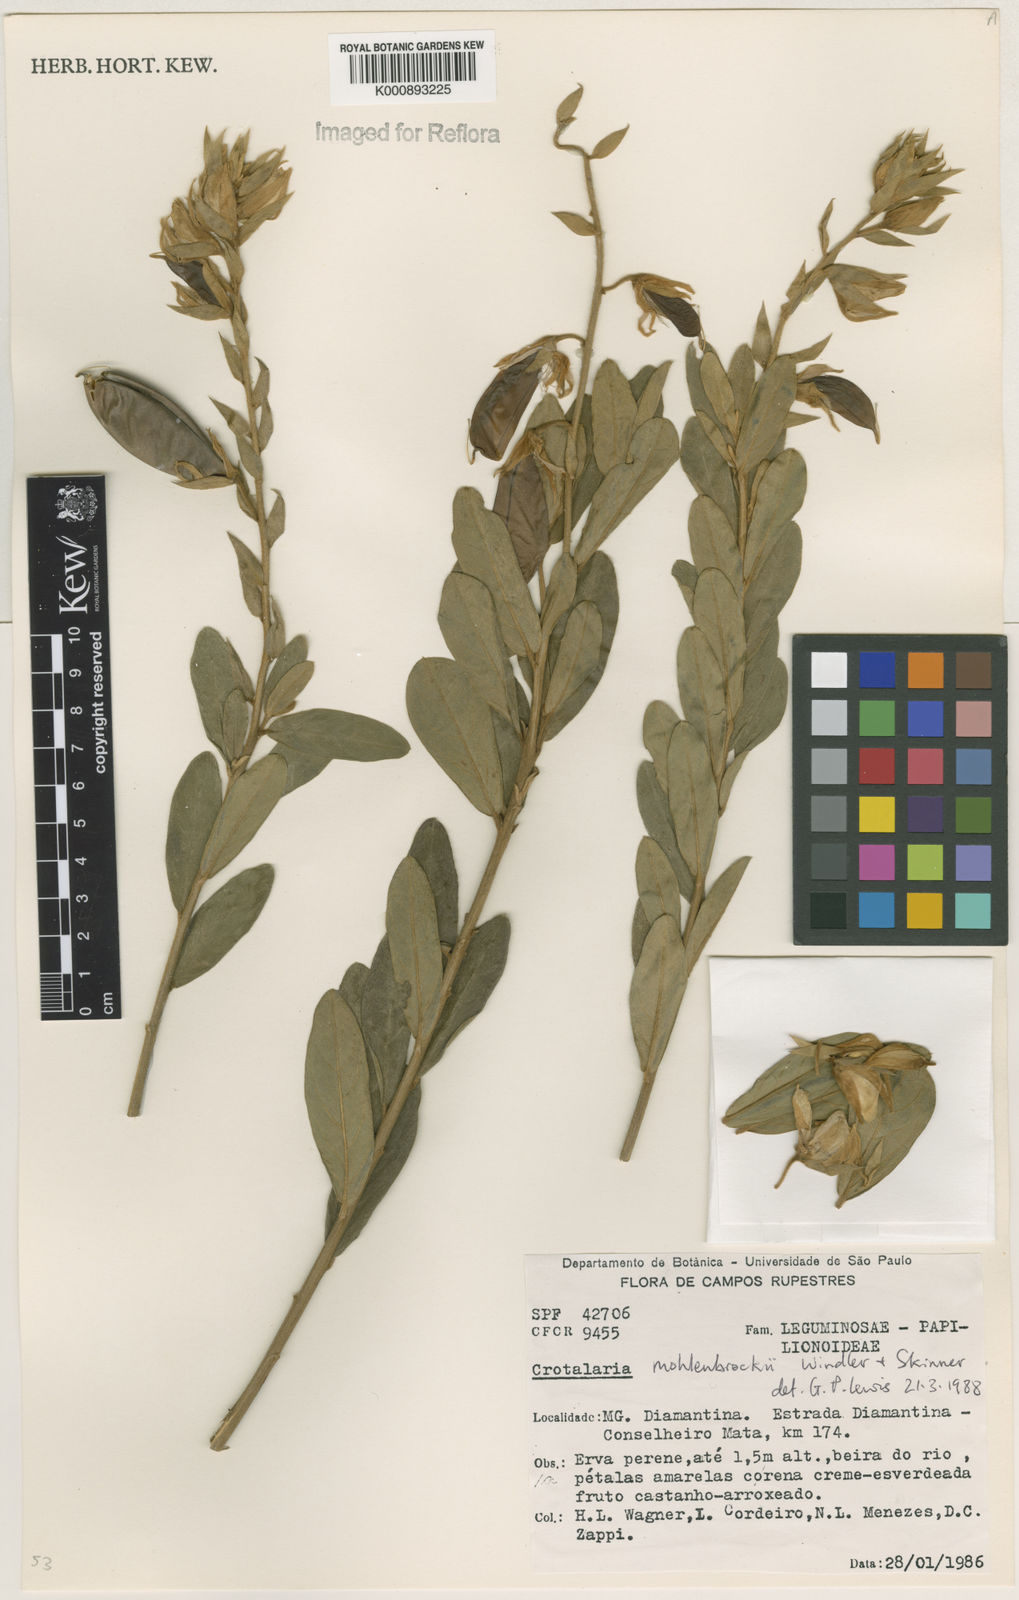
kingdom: Plantae
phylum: Tracheophyta
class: Magnoliopsida
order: Fabales
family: Fabaceae
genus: Crotalaria
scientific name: Crotalaria martiana
